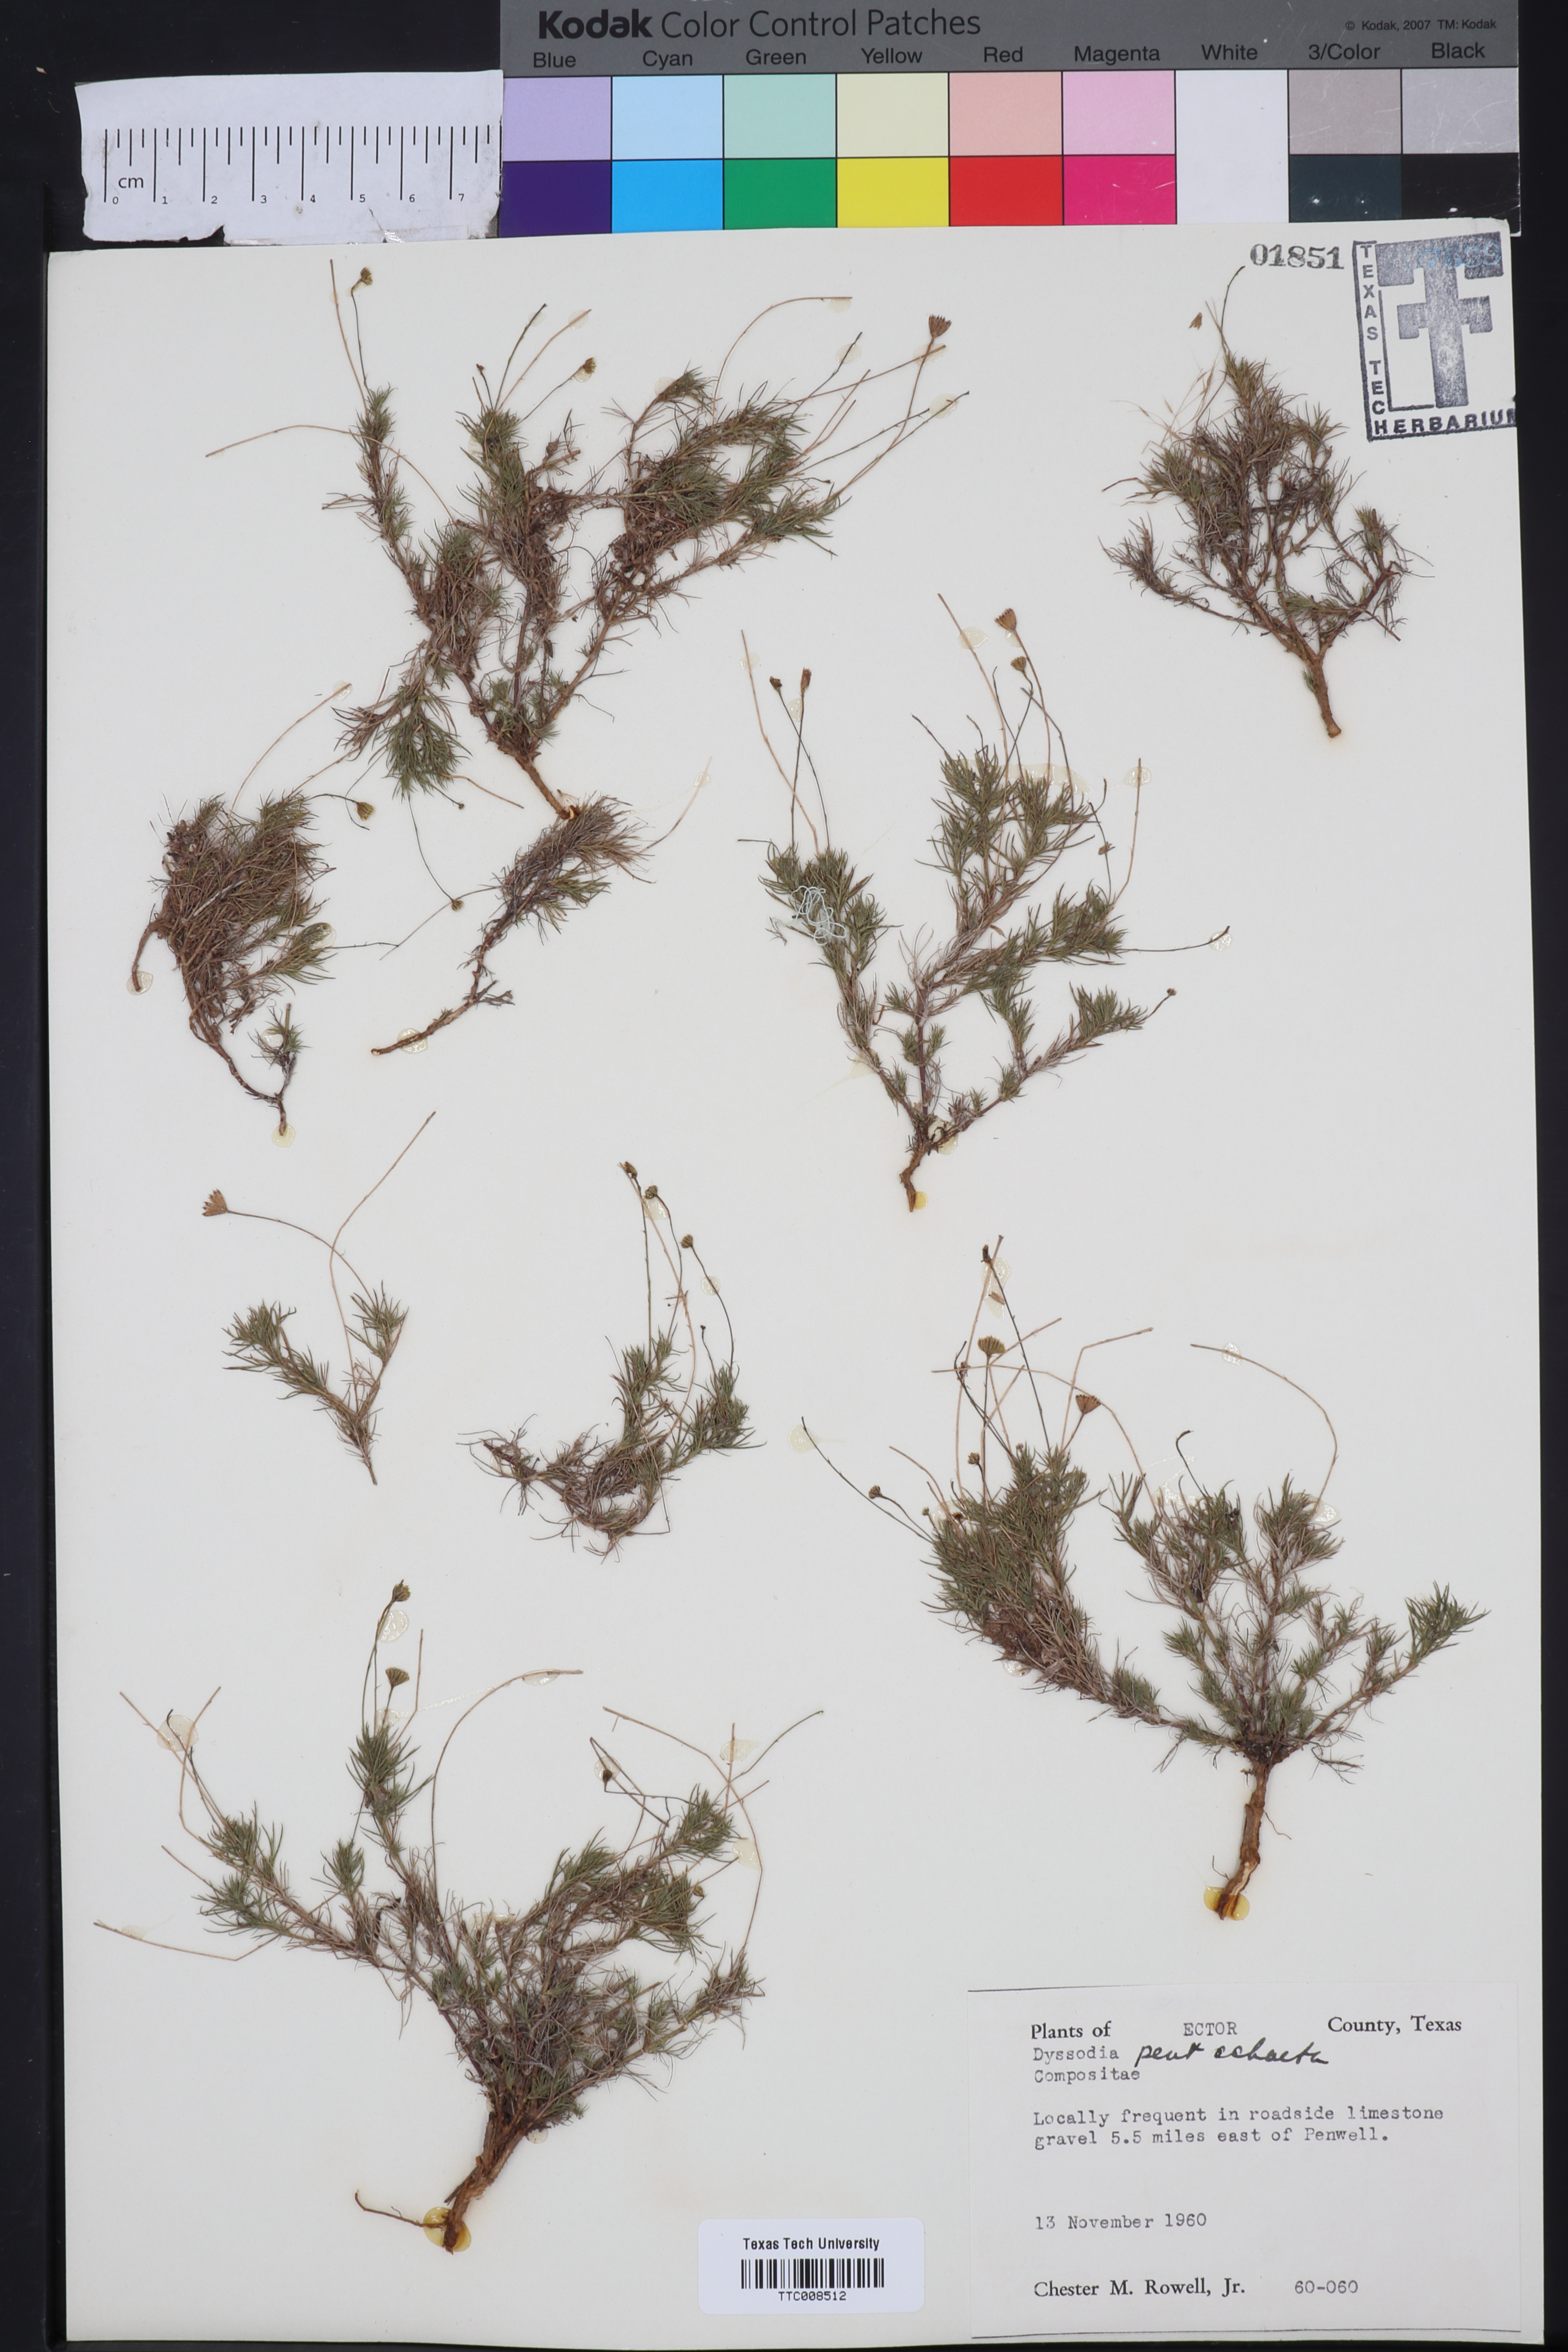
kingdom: Plantae
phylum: Tracheophyta
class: Magnoliopsida
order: Asterales
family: Asteraceae
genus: Thymophylla
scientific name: Thymophylla pentachaeta
